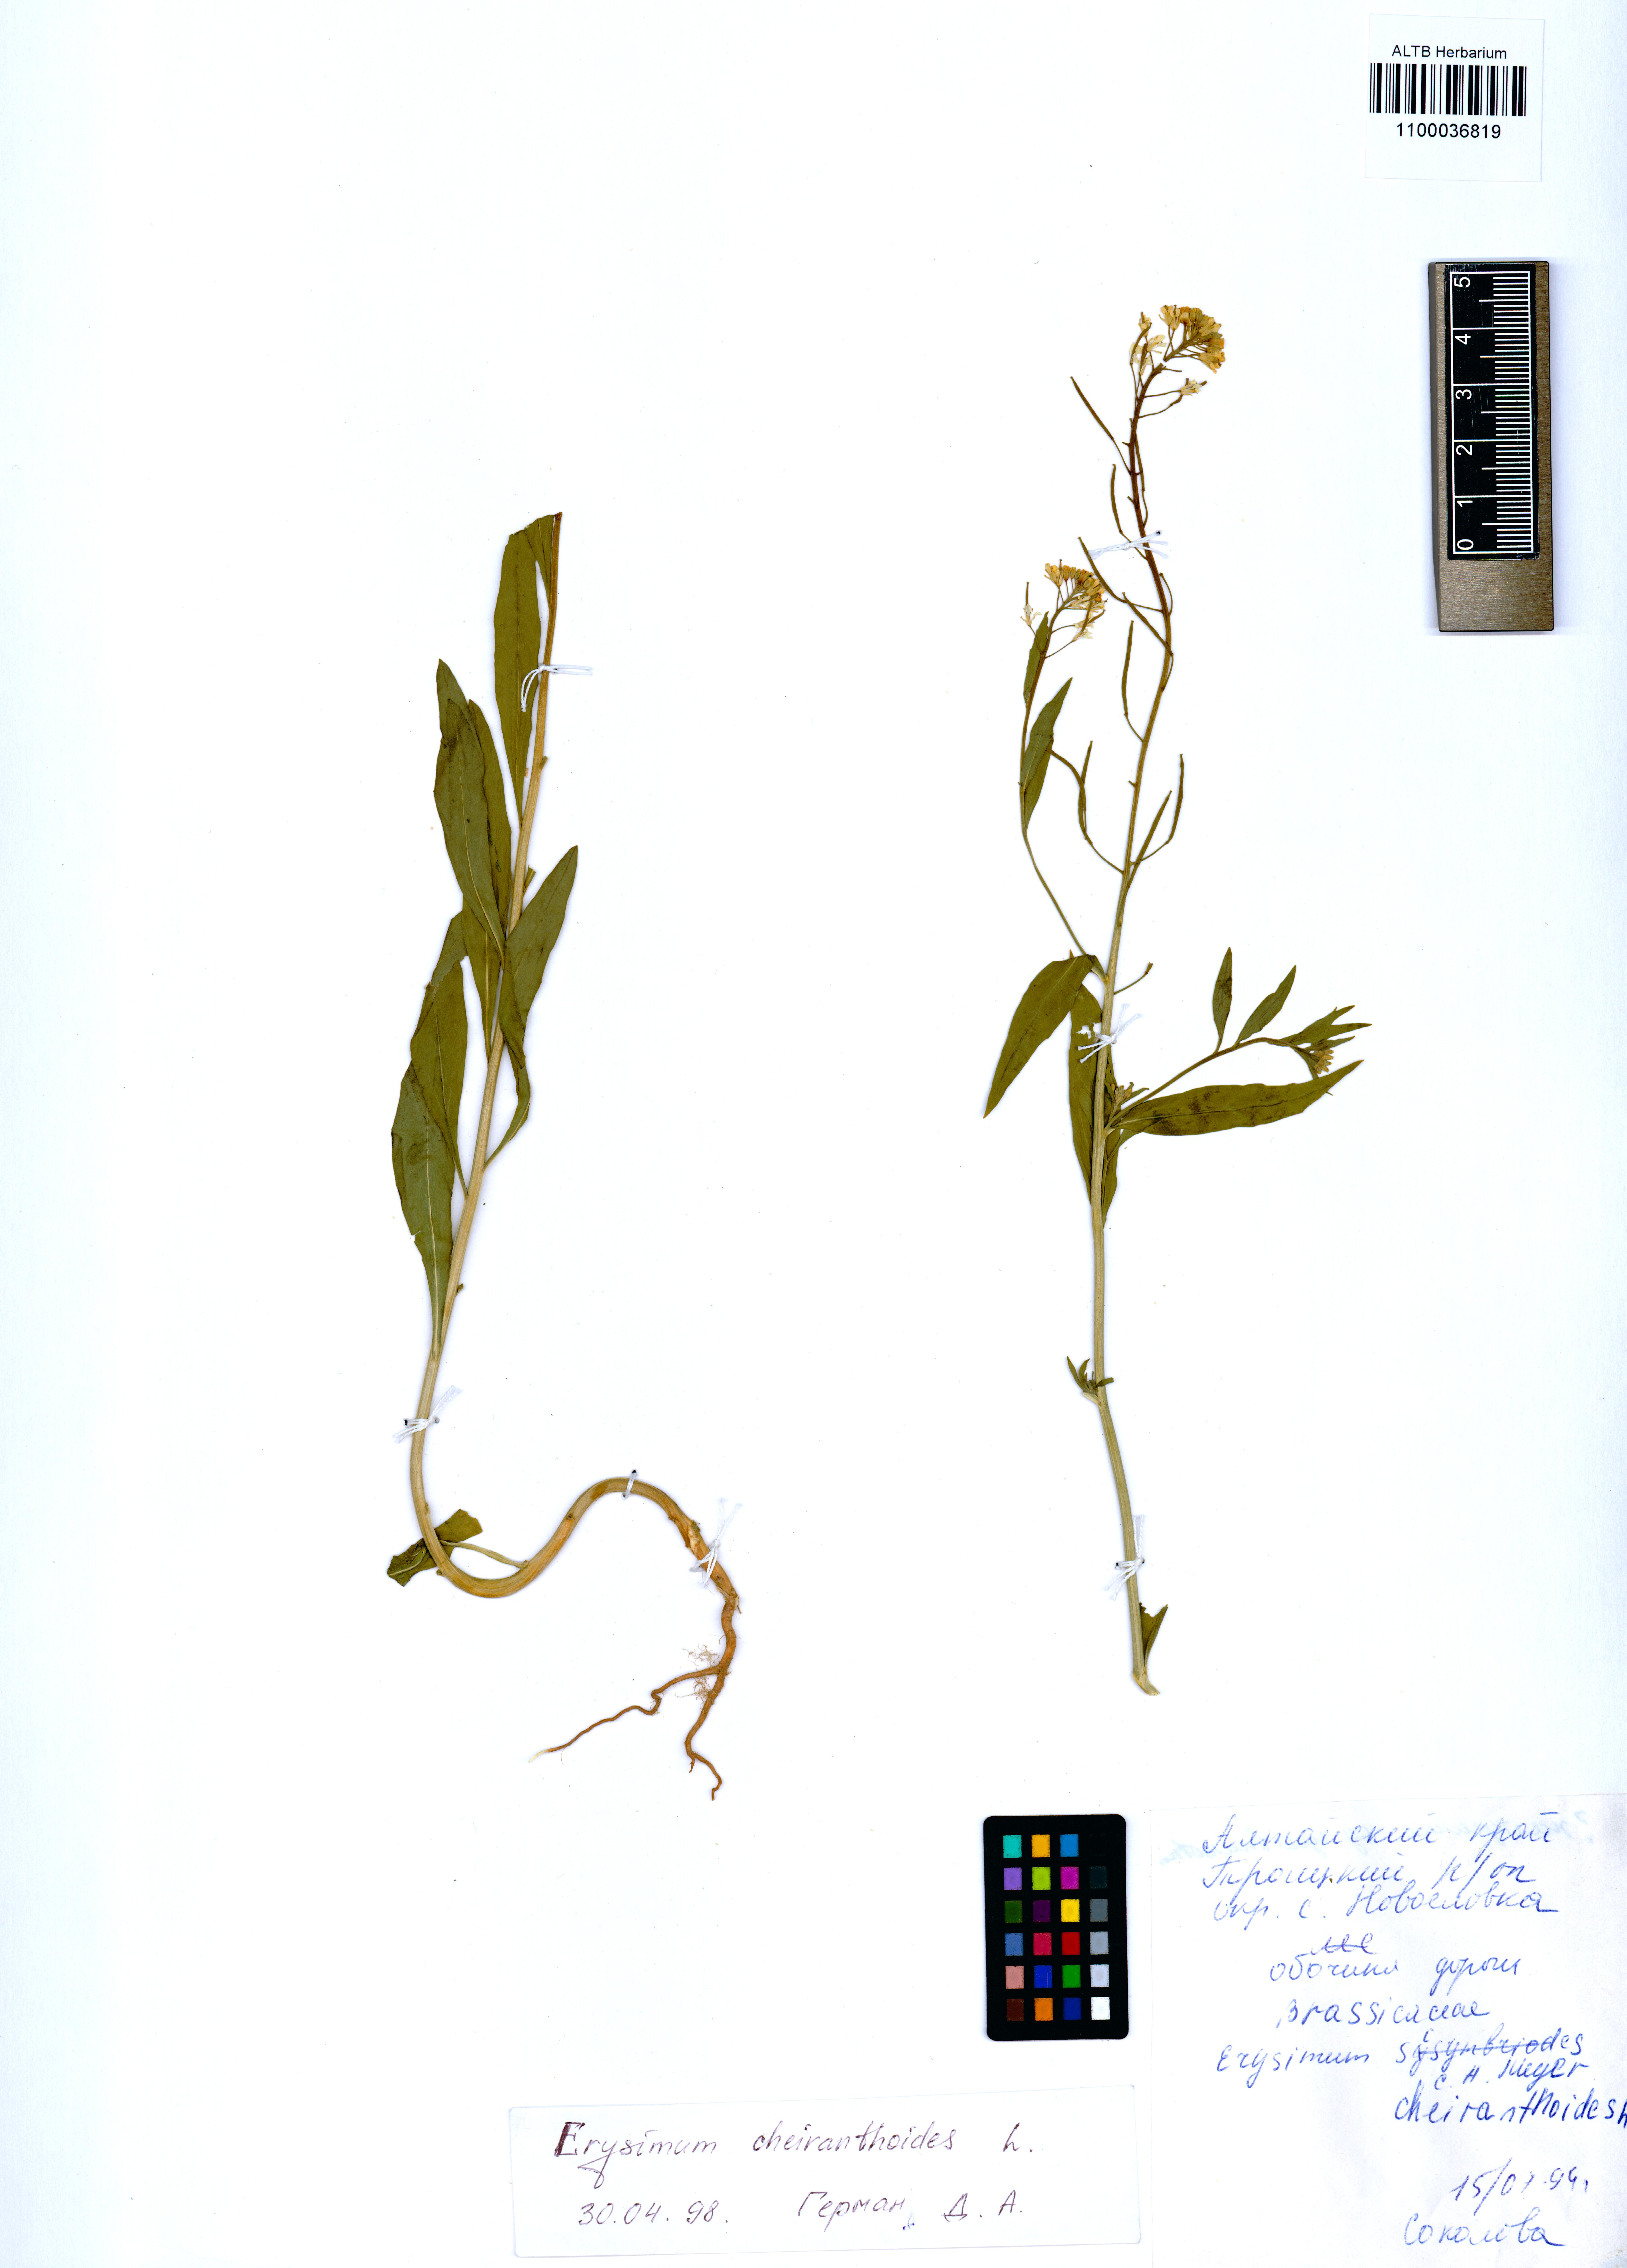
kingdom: Plantae
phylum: Tracheophyta
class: Magnoliopsida
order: Brassicales
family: Brassicaceae
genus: Erysimum
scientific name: Erysimum cheiranthoides
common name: Treacle mustard
